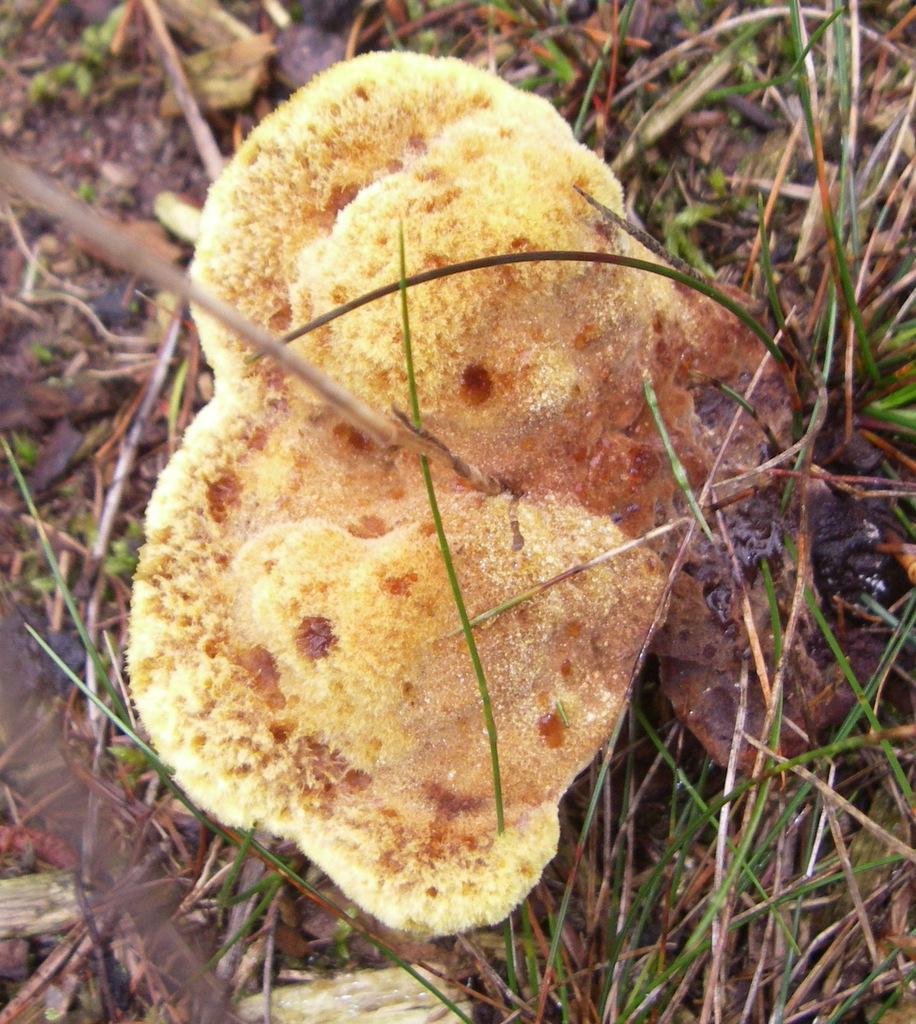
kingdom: Fungi
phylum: Basidiomycota
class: Agaricomycetes
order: Polyporales
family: Laetiporaceae
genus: Phaeolus
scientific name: Phaeolus schweinitzii
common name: brunporesvamp
